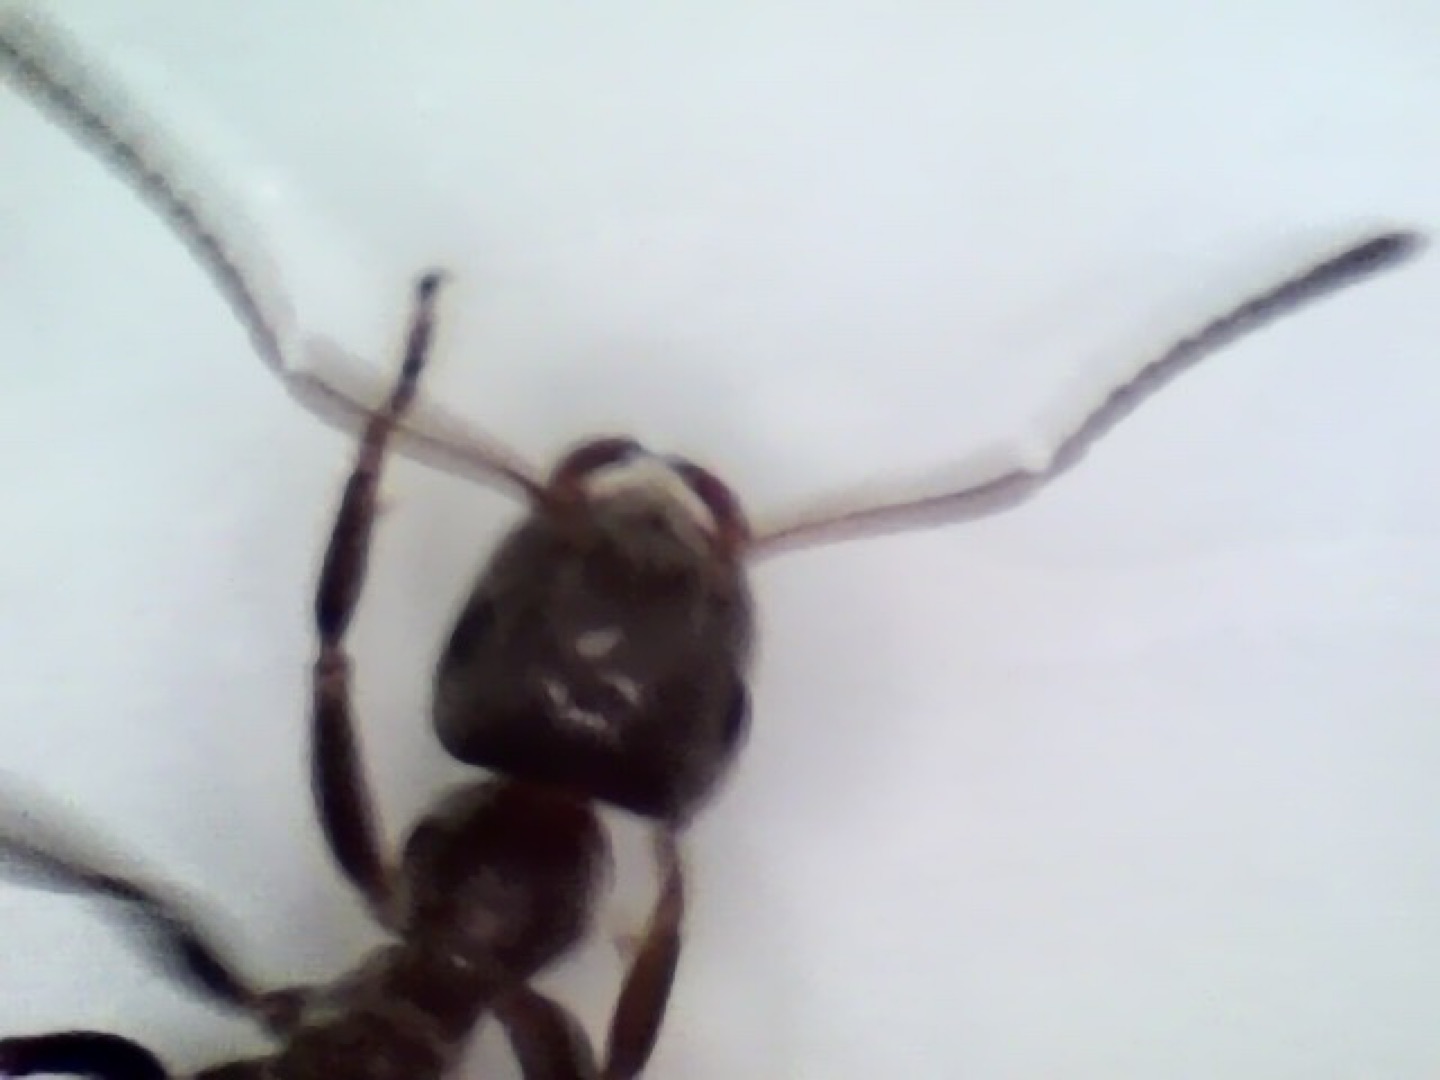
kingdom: Animalia
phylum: Arthropoda
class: Insecta
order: Hymenoptera
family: Formicidae
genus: Lasius
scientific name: Lasius
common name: Jordmyrer
